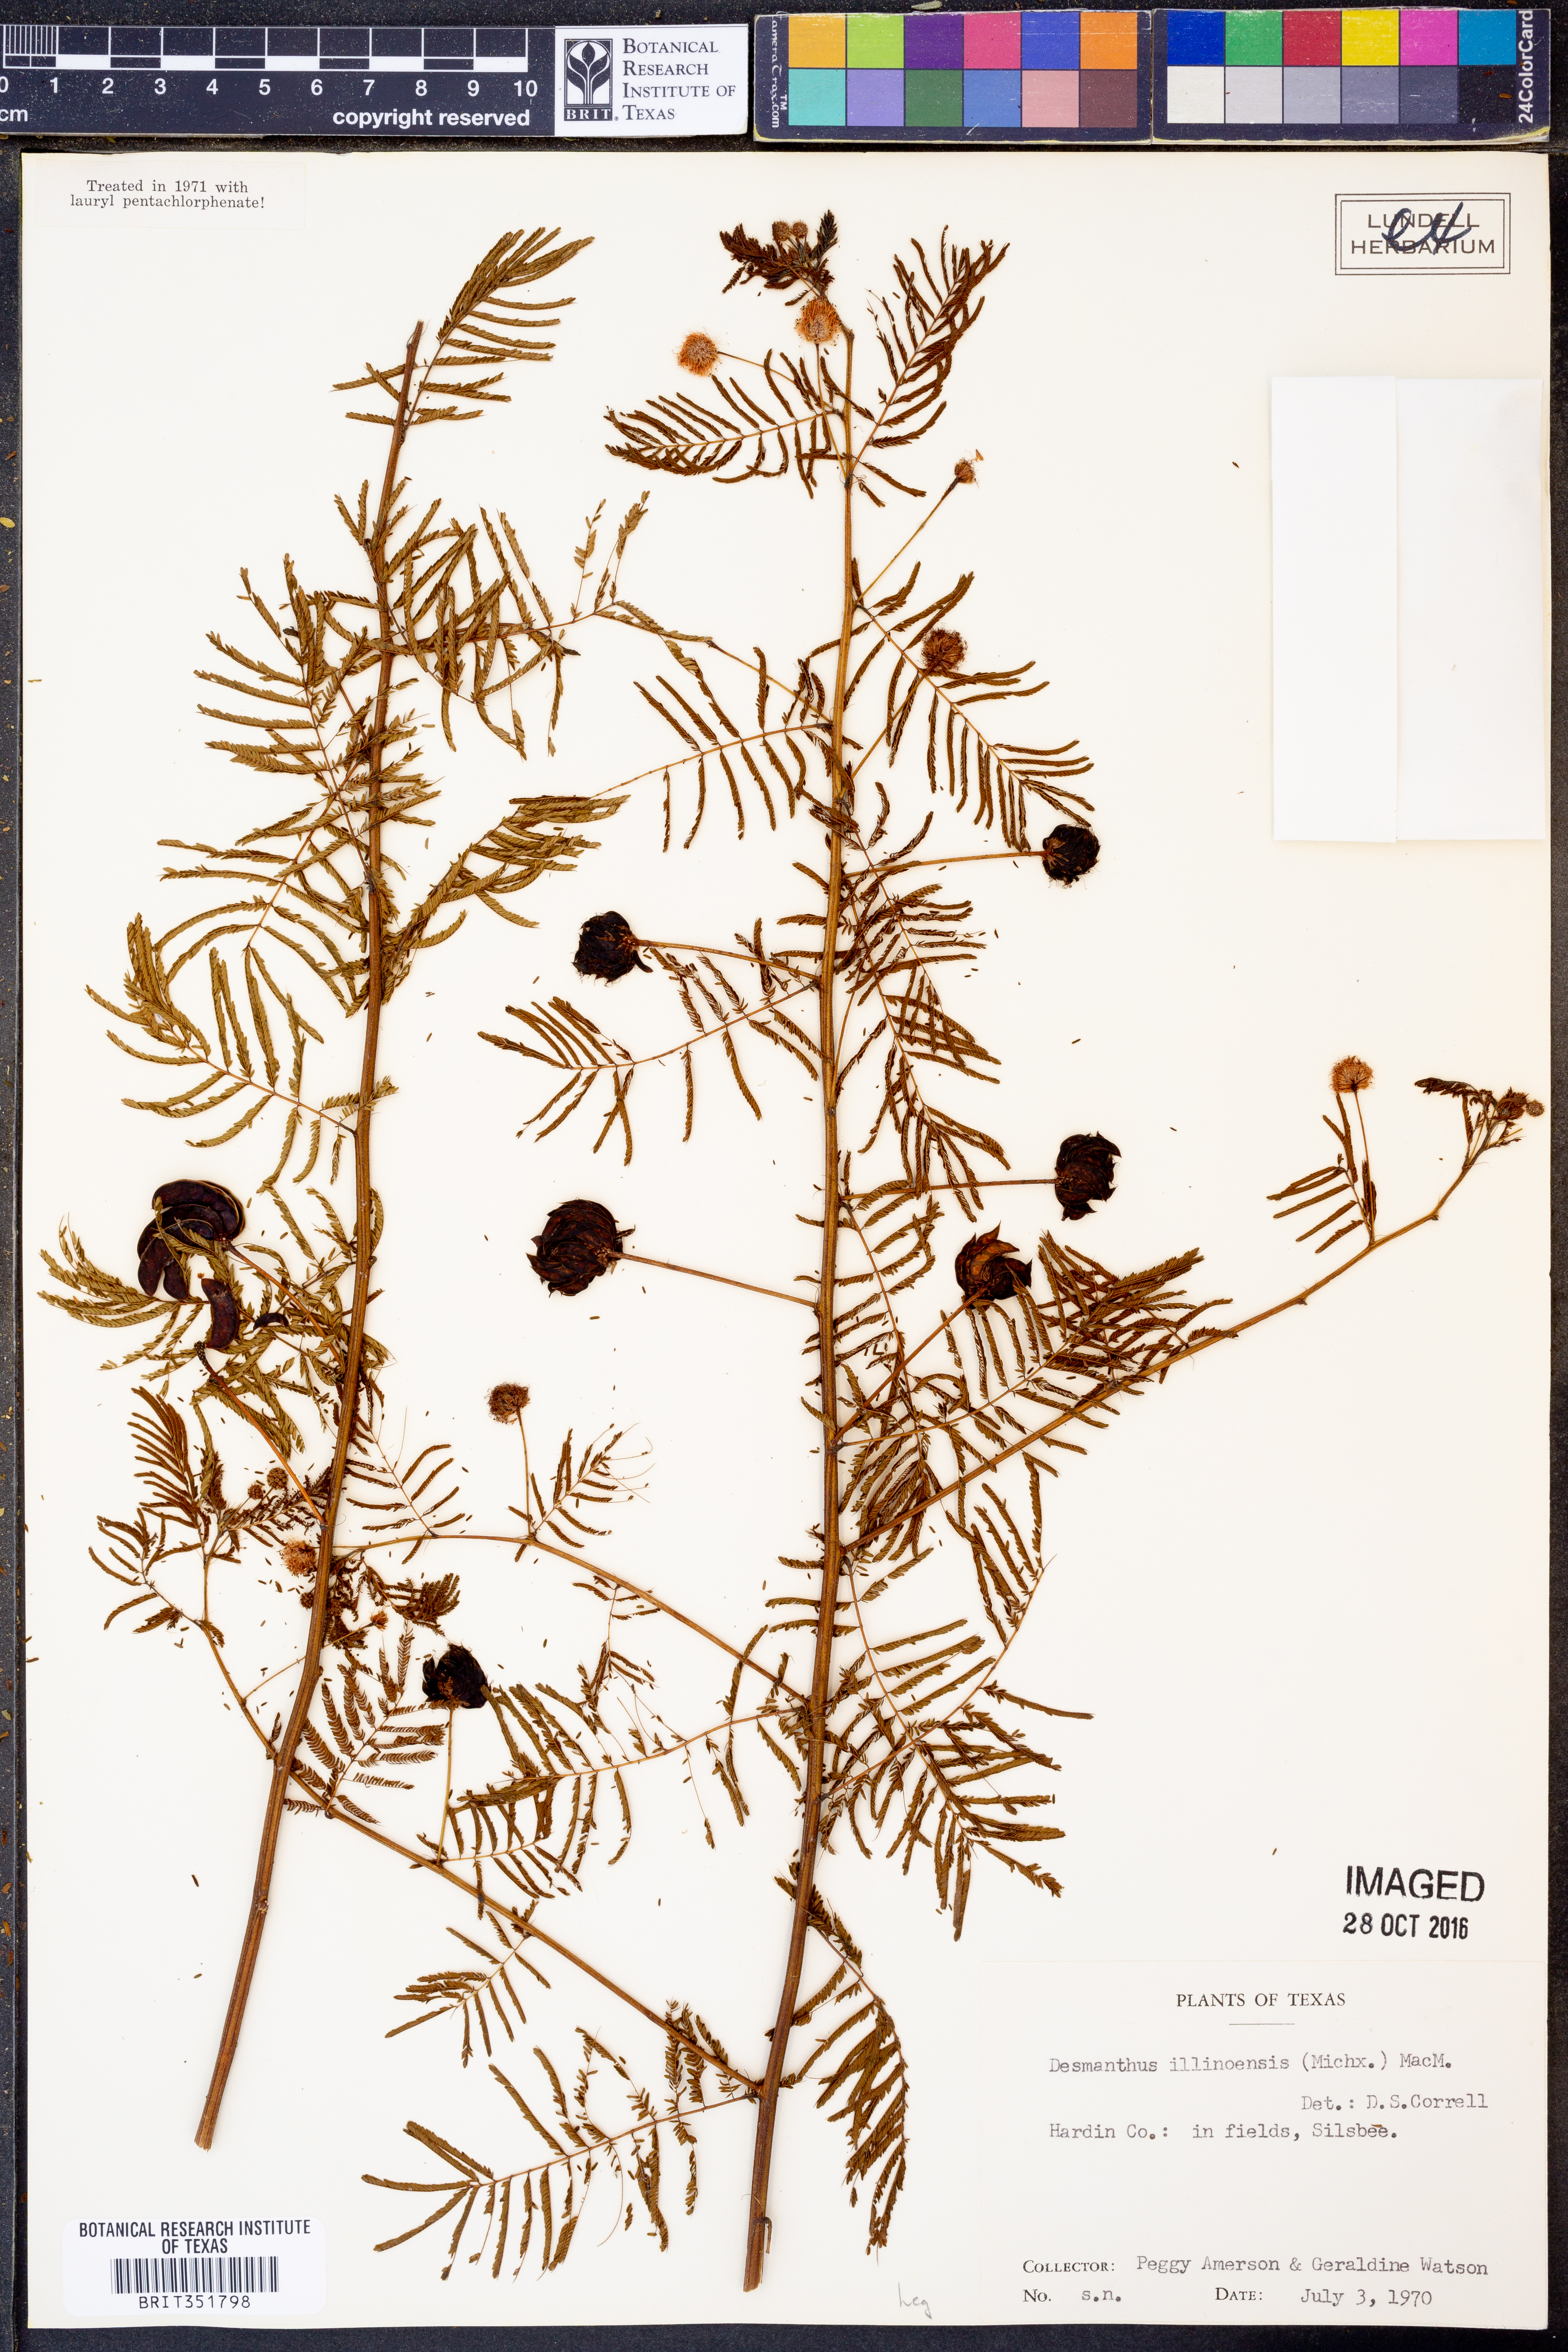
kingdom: Plantae
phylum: Tracheophyta
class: Magnoliopsida
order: Fabales
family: Fabaceae
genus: Desmanthus
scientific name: Desmanthus illinoensis
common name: Illinois bundle-flower
